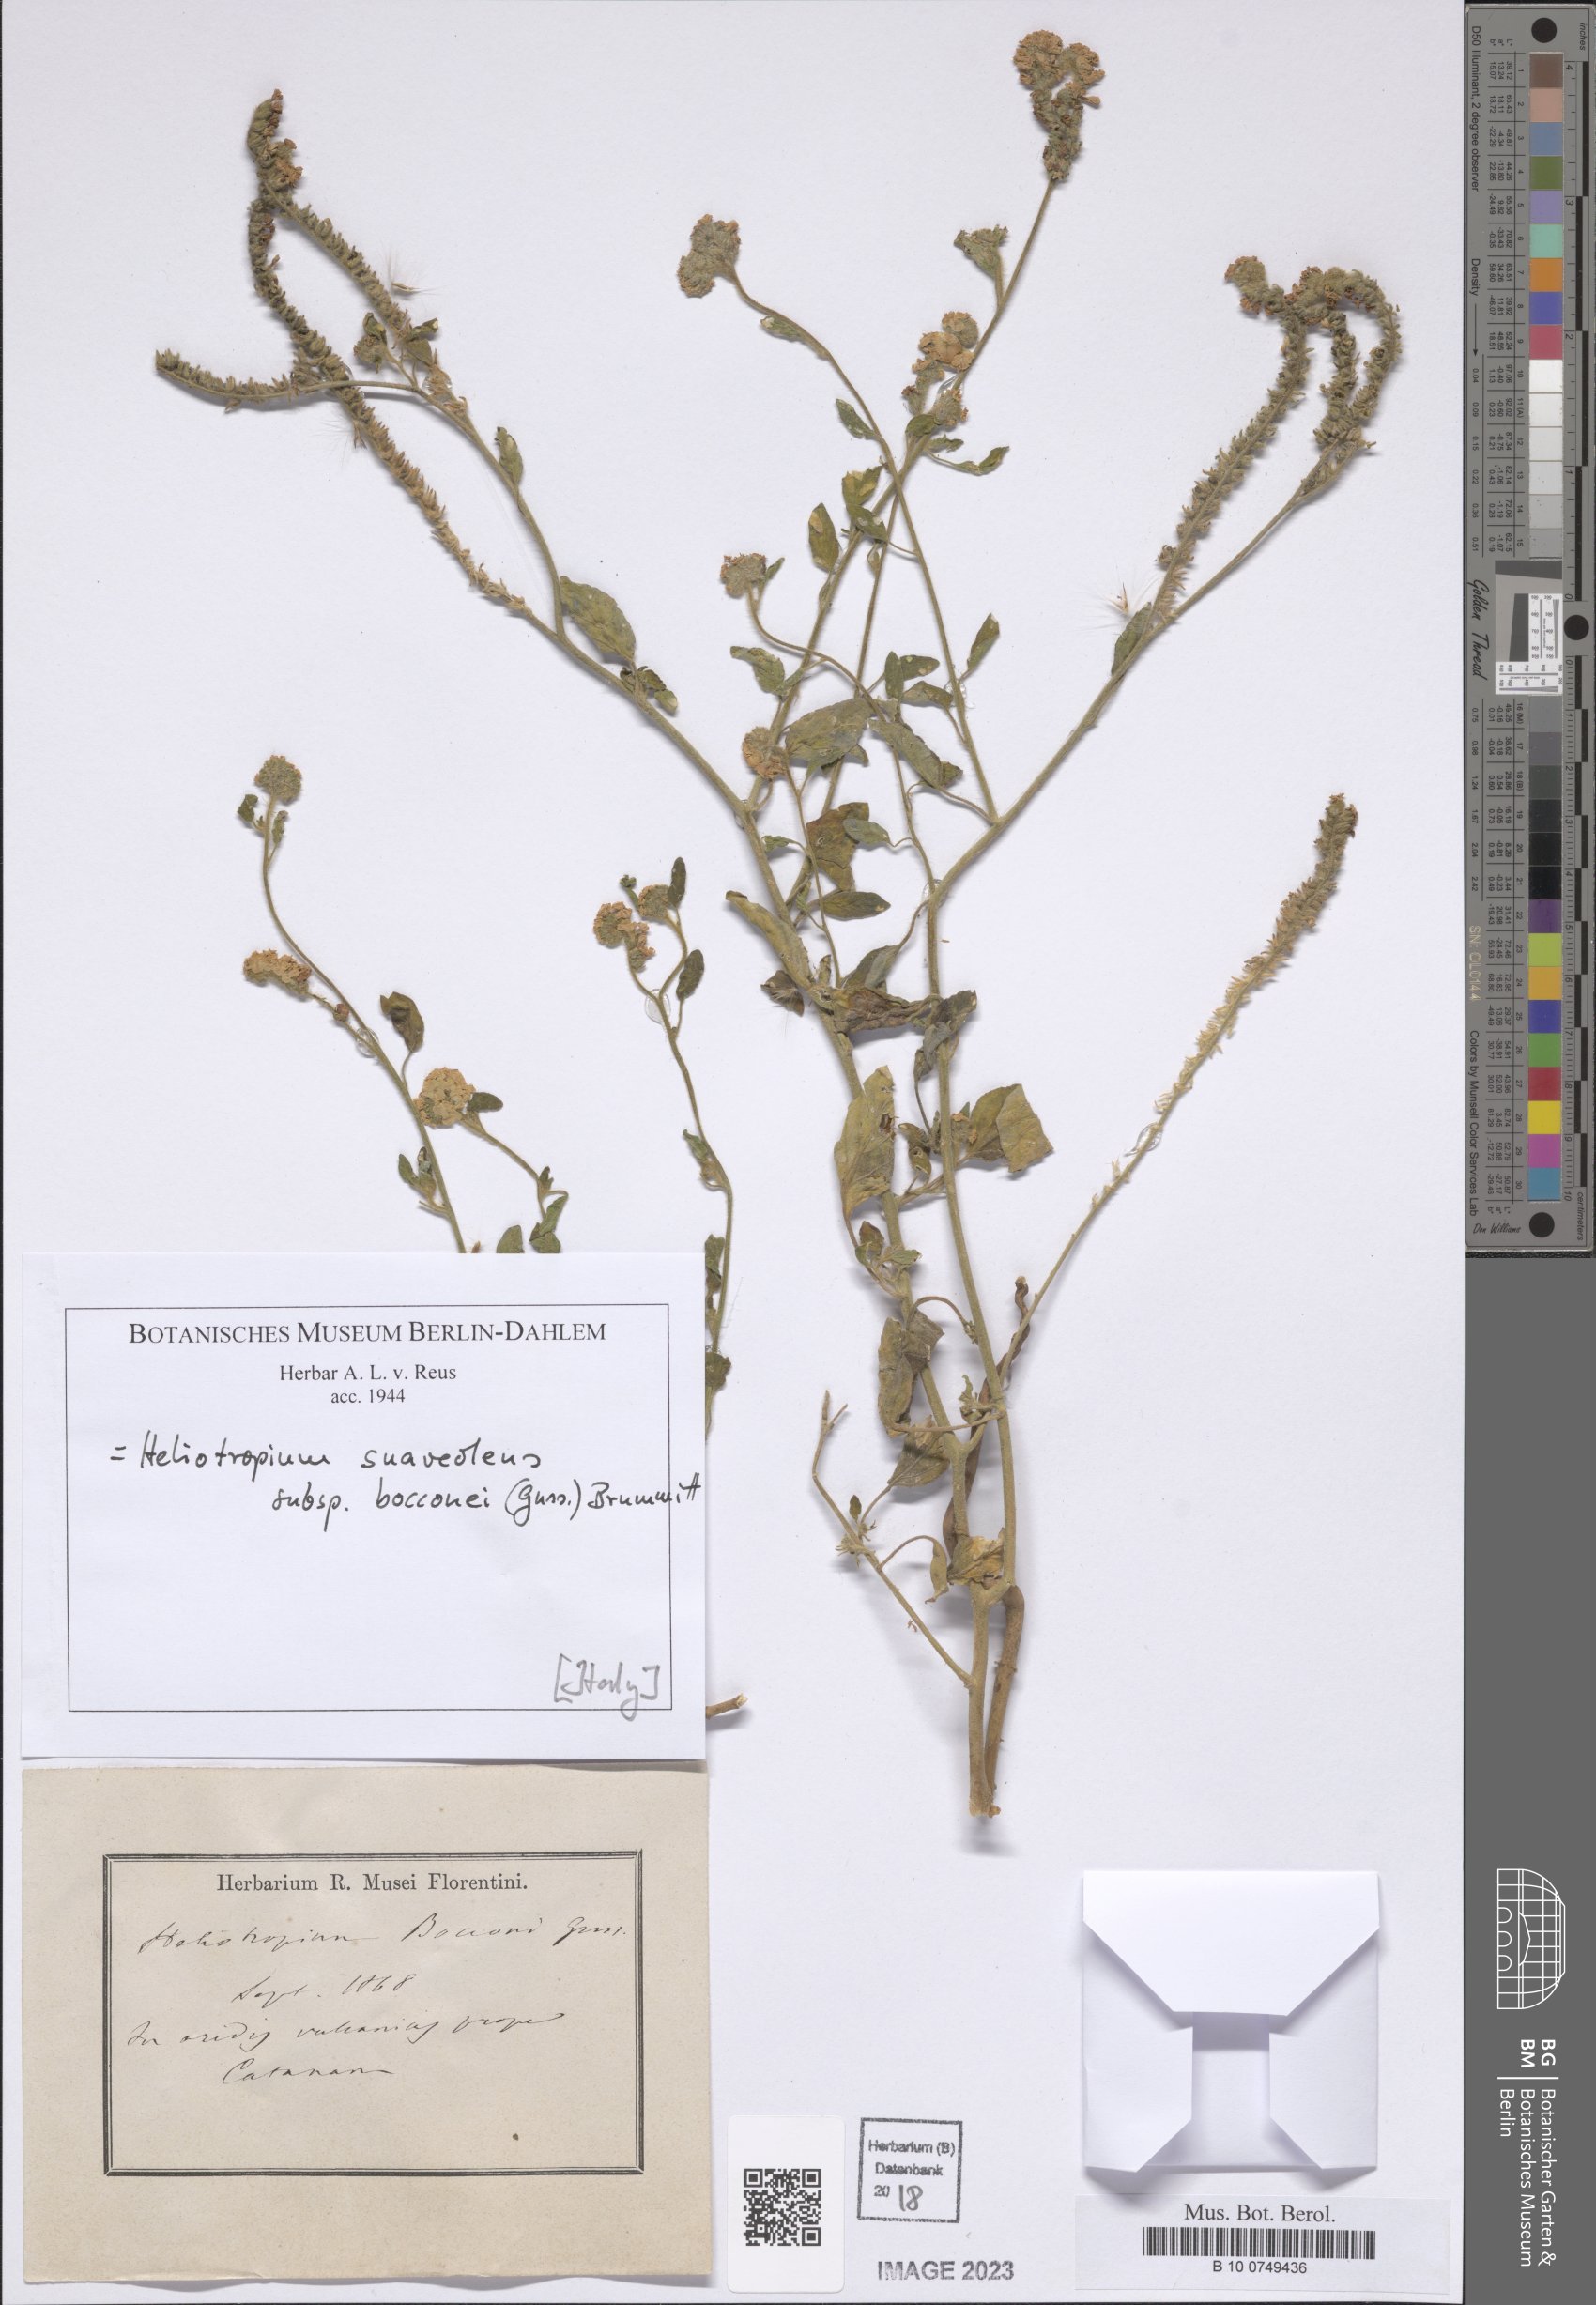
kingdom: Plantae
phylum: Tracheophyta
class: Magnoliopsida
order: Boraginales
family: Heliotropiaceae
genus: Heliotropium
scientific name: Heliotropium suaveolens
